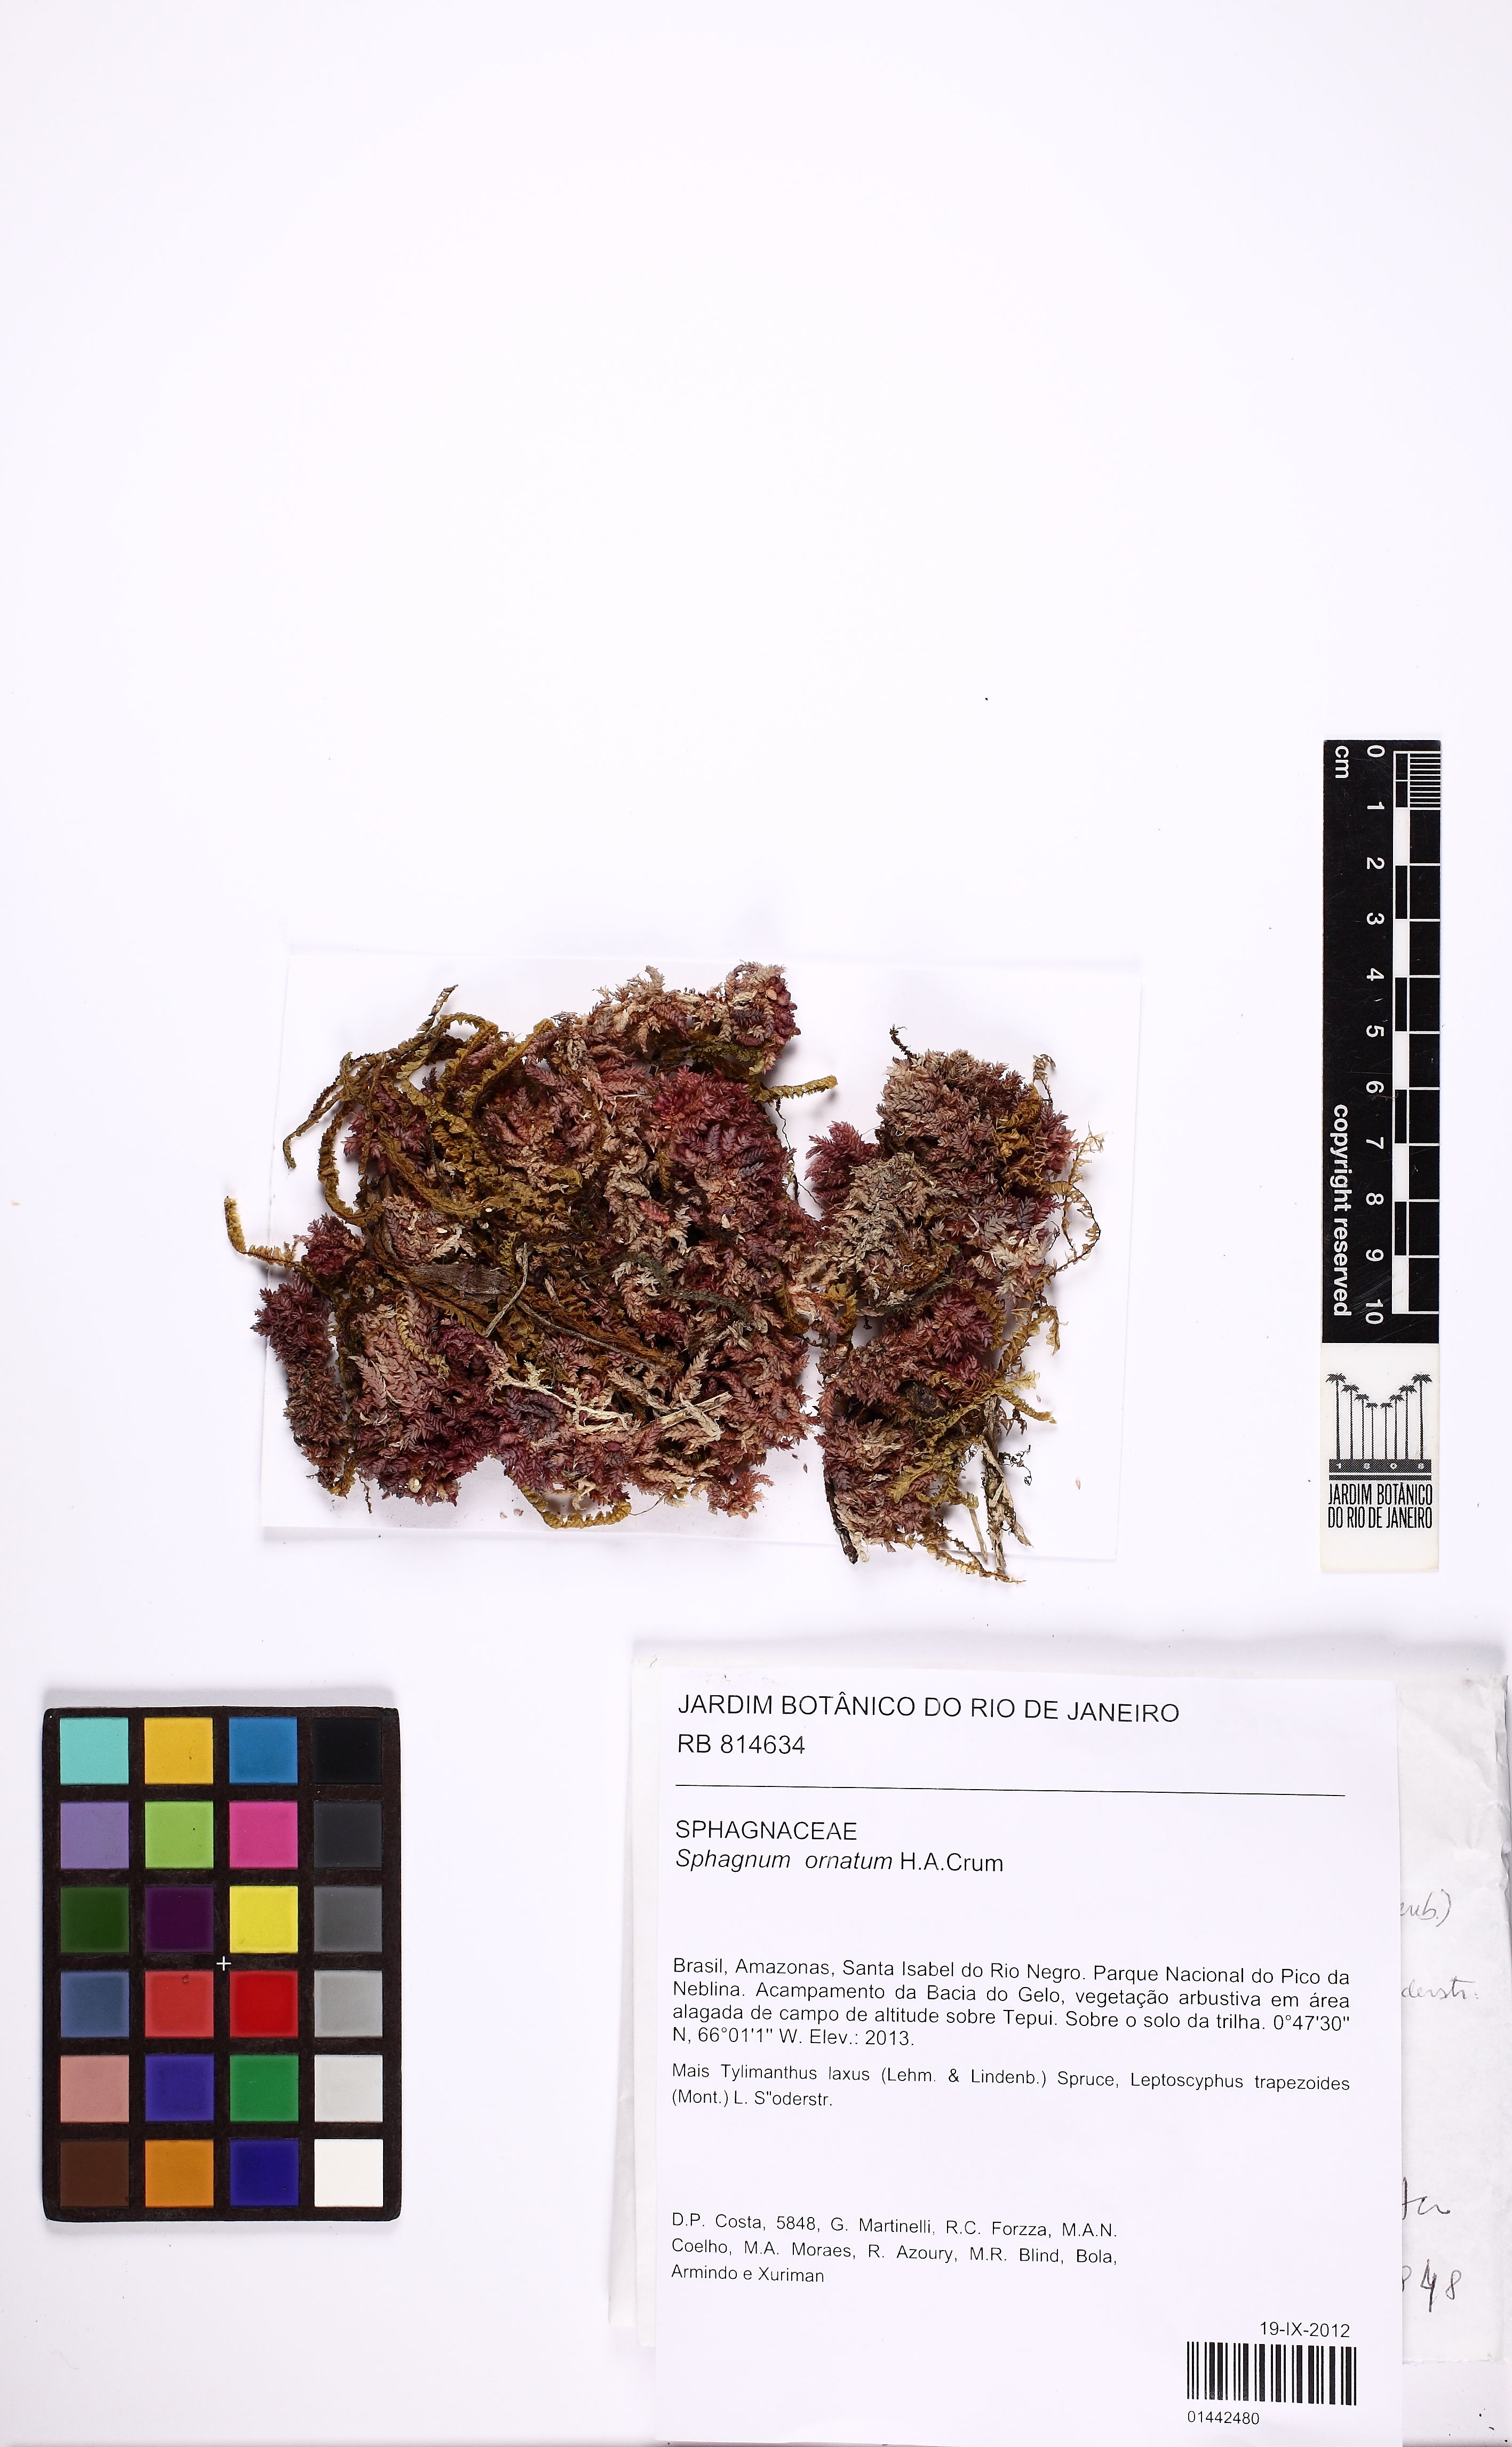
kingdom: Plantae
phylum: Bryophyta
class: Sphagnopsida
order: Sphagnales
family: Sphagnaceae
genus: Sphagnum
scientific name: Sphagnum ornatum
